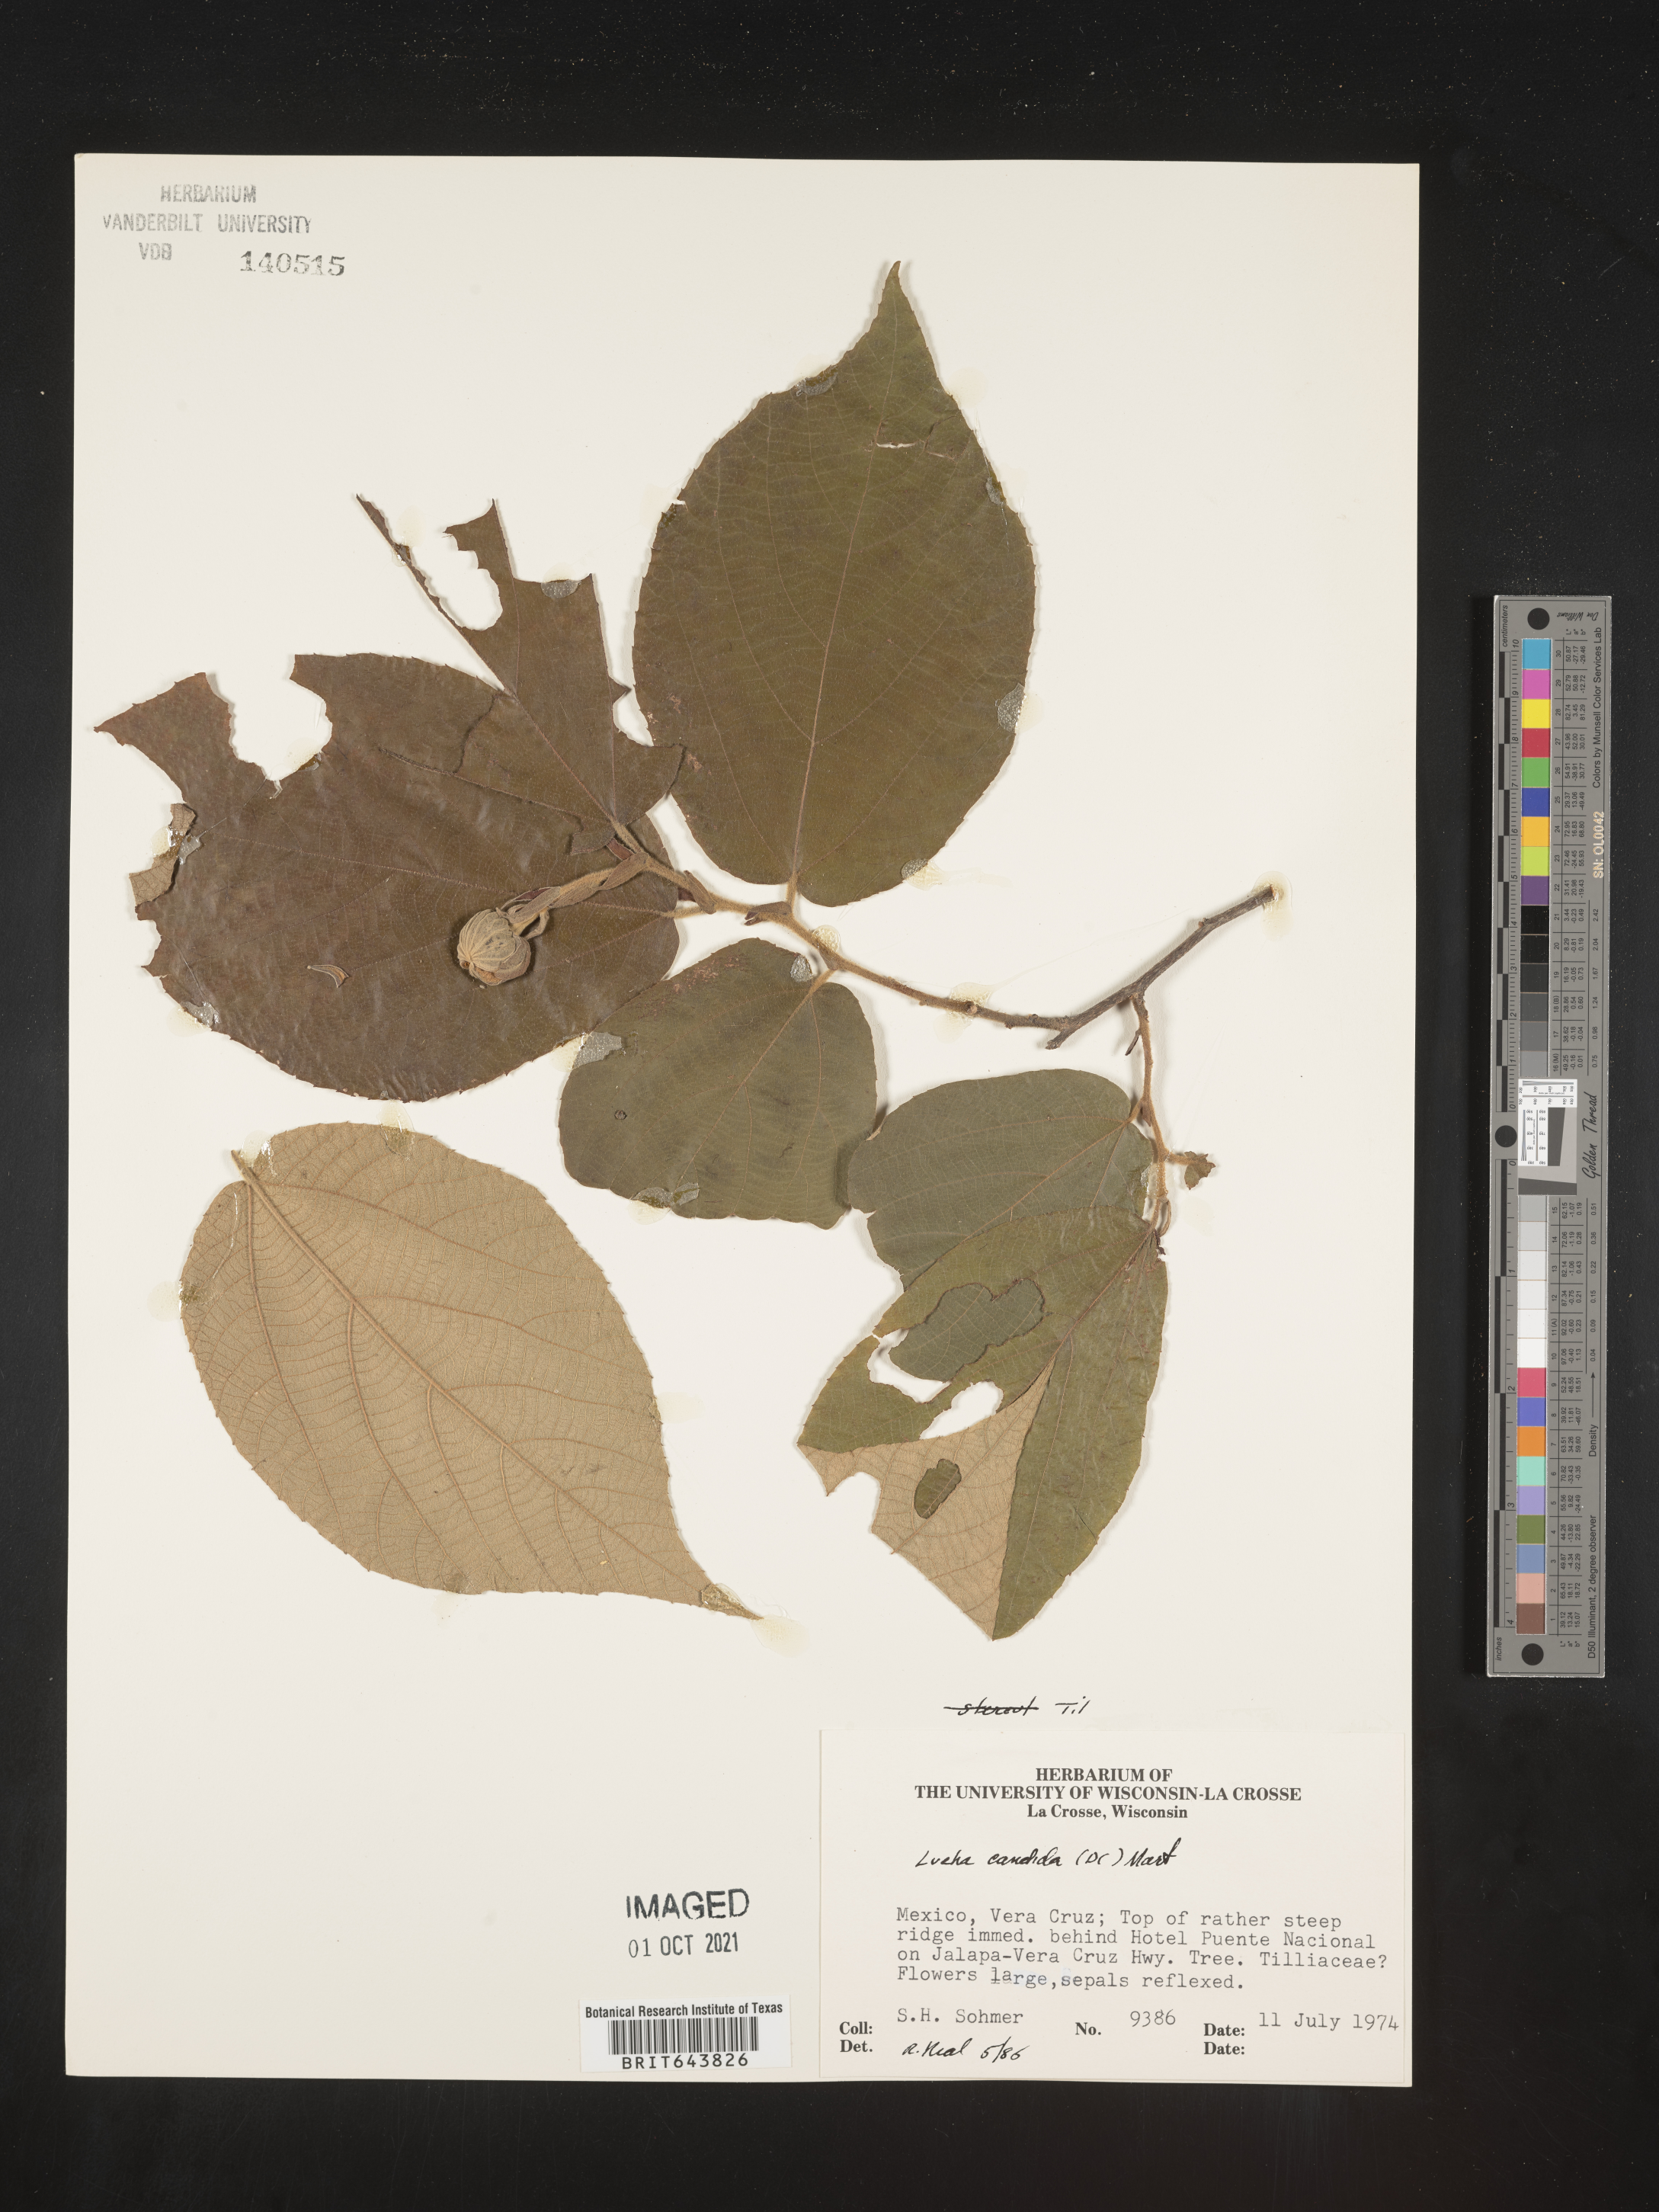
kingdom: Plantae
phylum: Tracheophyta
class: Magnoliopsida
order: Malvales
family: Malvaceae
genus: Luehea
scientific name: Luehea
